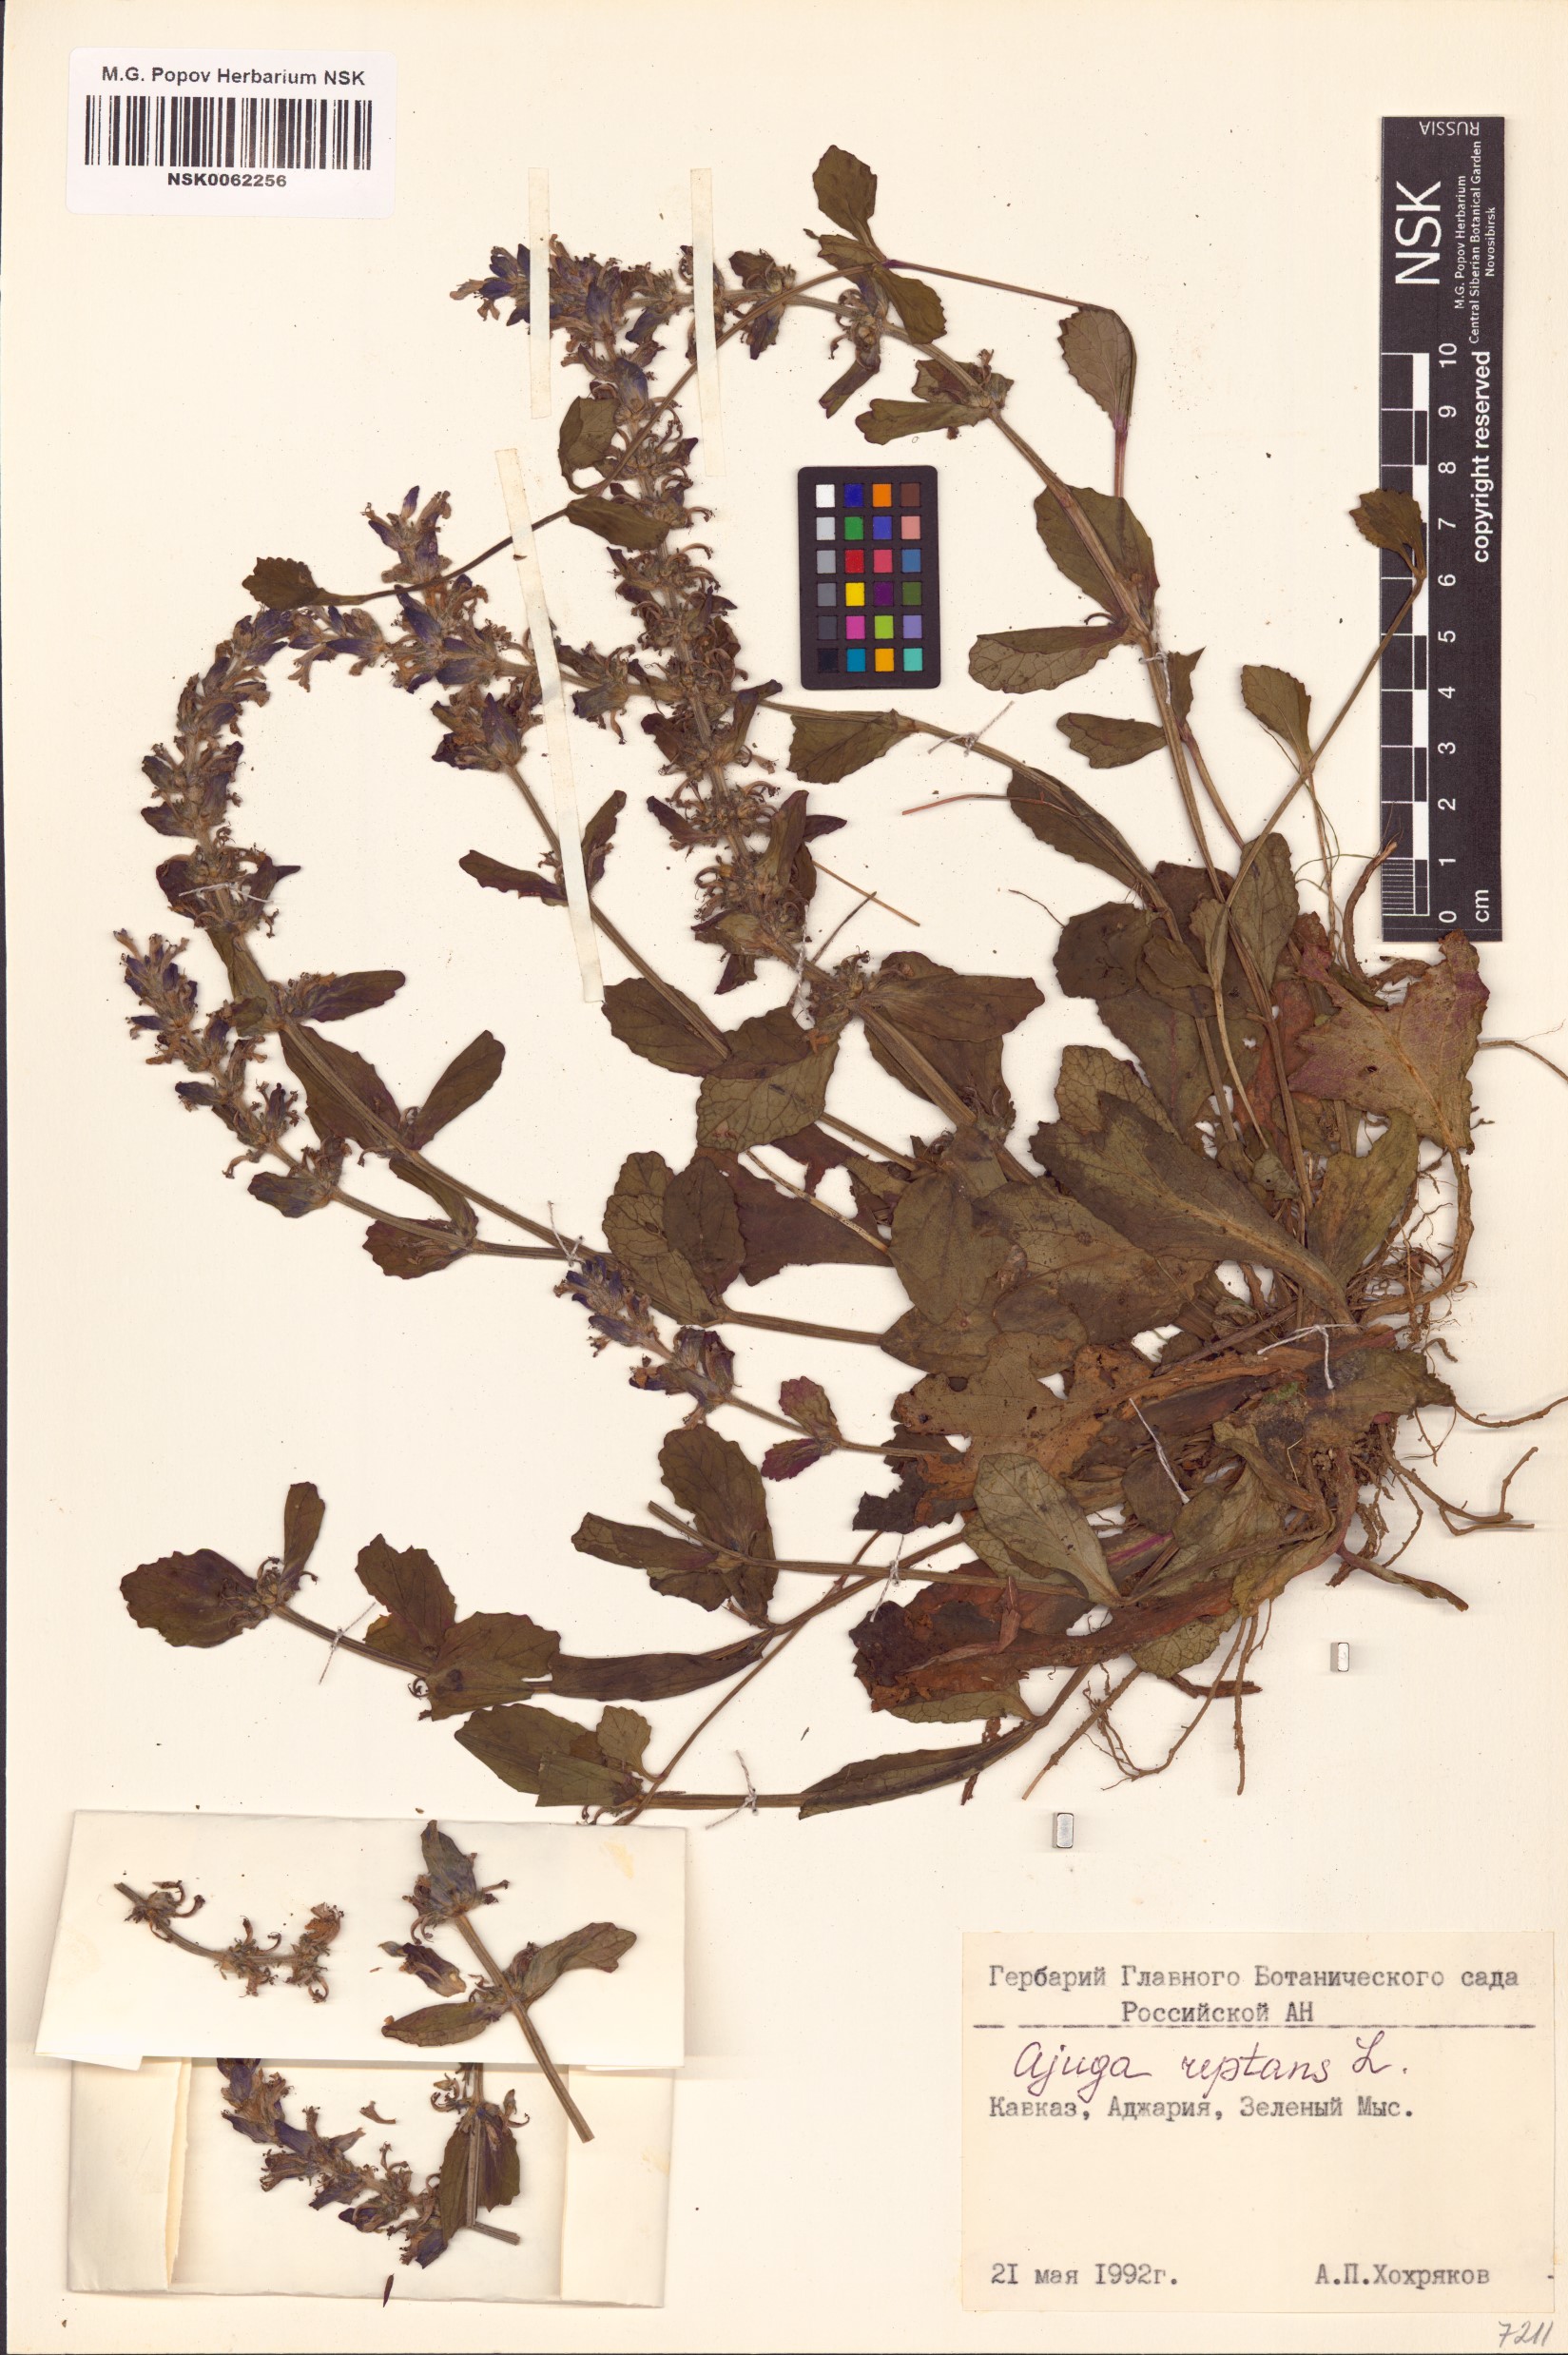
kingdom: Plantae
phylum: Tracheophyta
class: Magnoliopsida
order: Lamiales
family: Lamiaceae
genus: Ajuga
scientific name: Ajuga reptans
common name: Bugle
